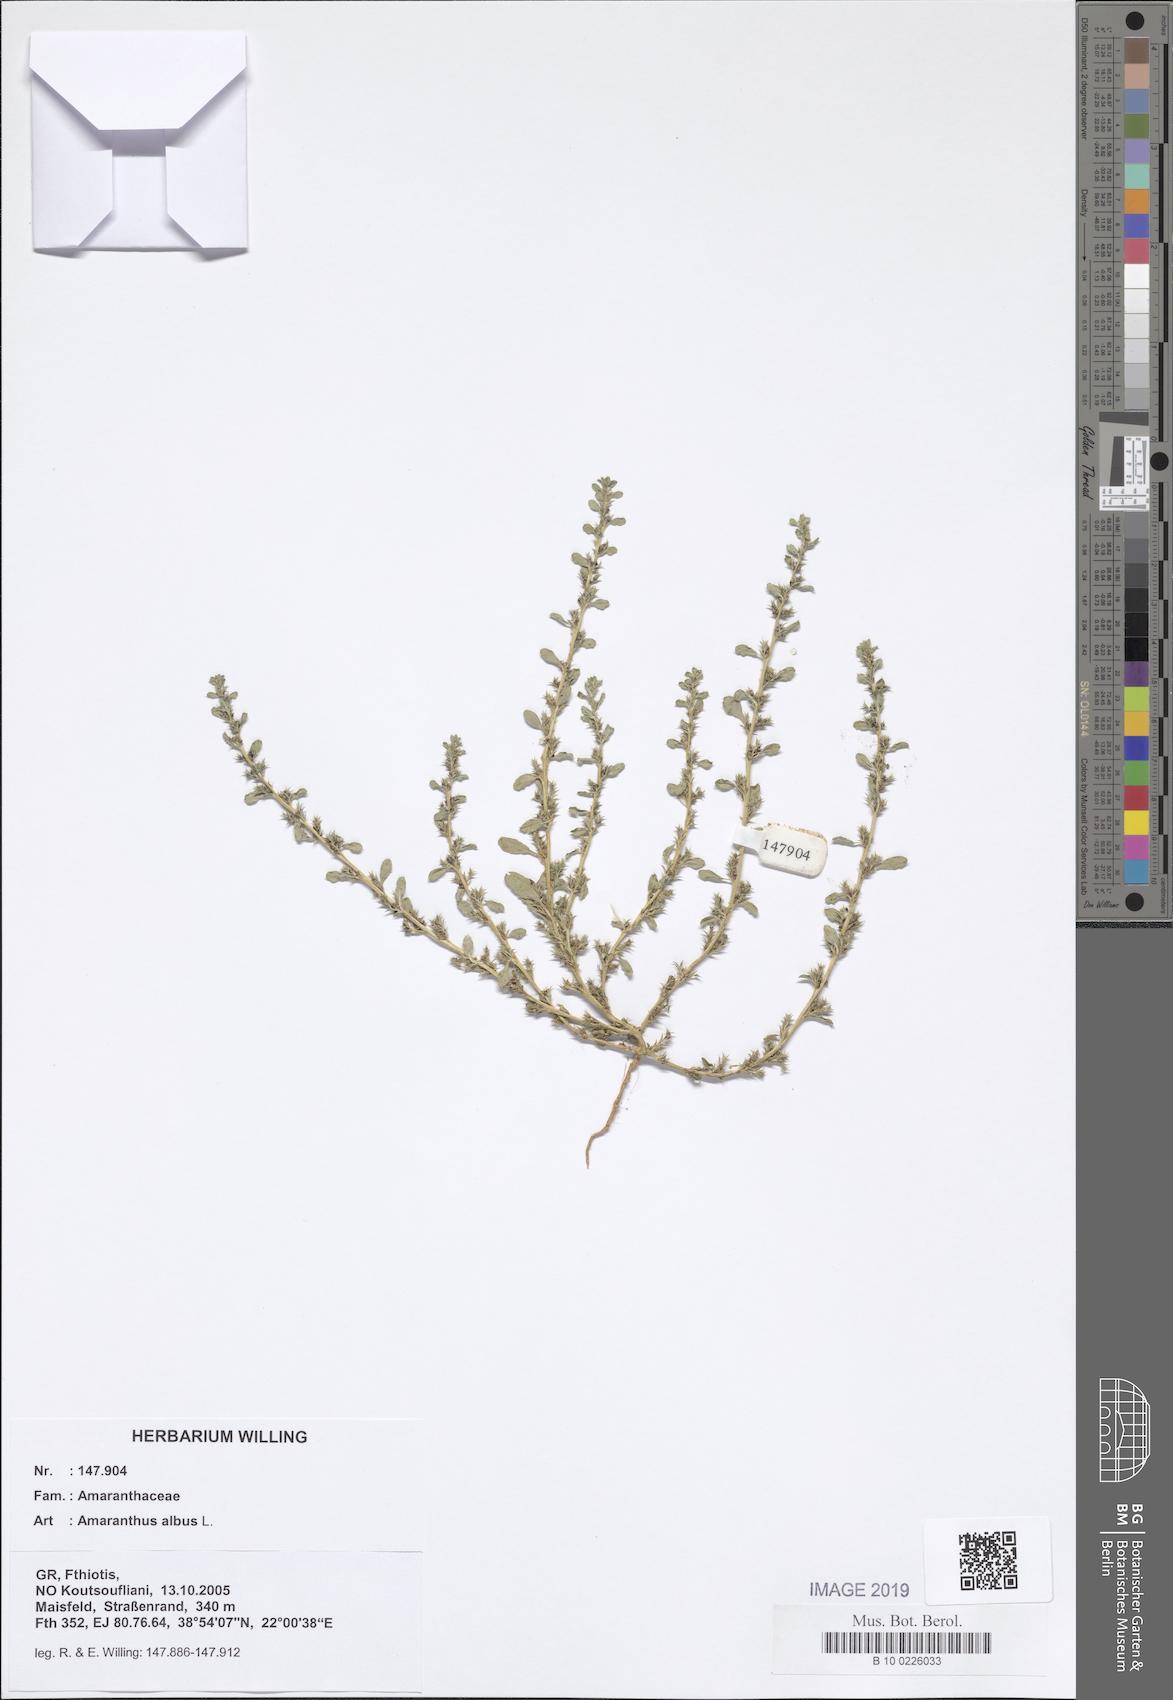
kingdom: Plantae
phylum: Tracheophyta
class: Magnoliopsida
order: Caryophyllales
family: Amaranthaceae
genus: Amaranthus
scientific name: Amaranthus albus
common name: White pigweed
